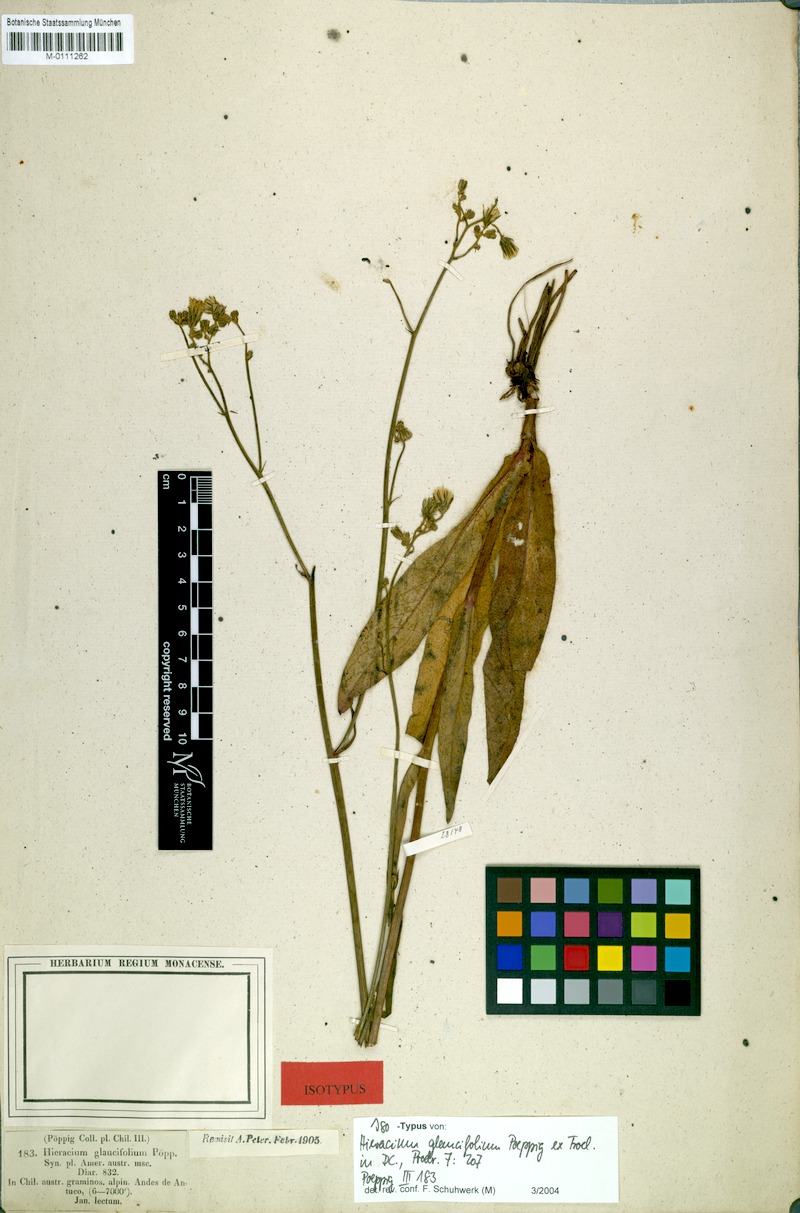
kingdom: Plantae
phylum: Tracheophyta
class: Magnoliopsida
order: Asterales
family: Asteraceae
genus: Hieracium
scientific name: Hieracium glaucifolium
